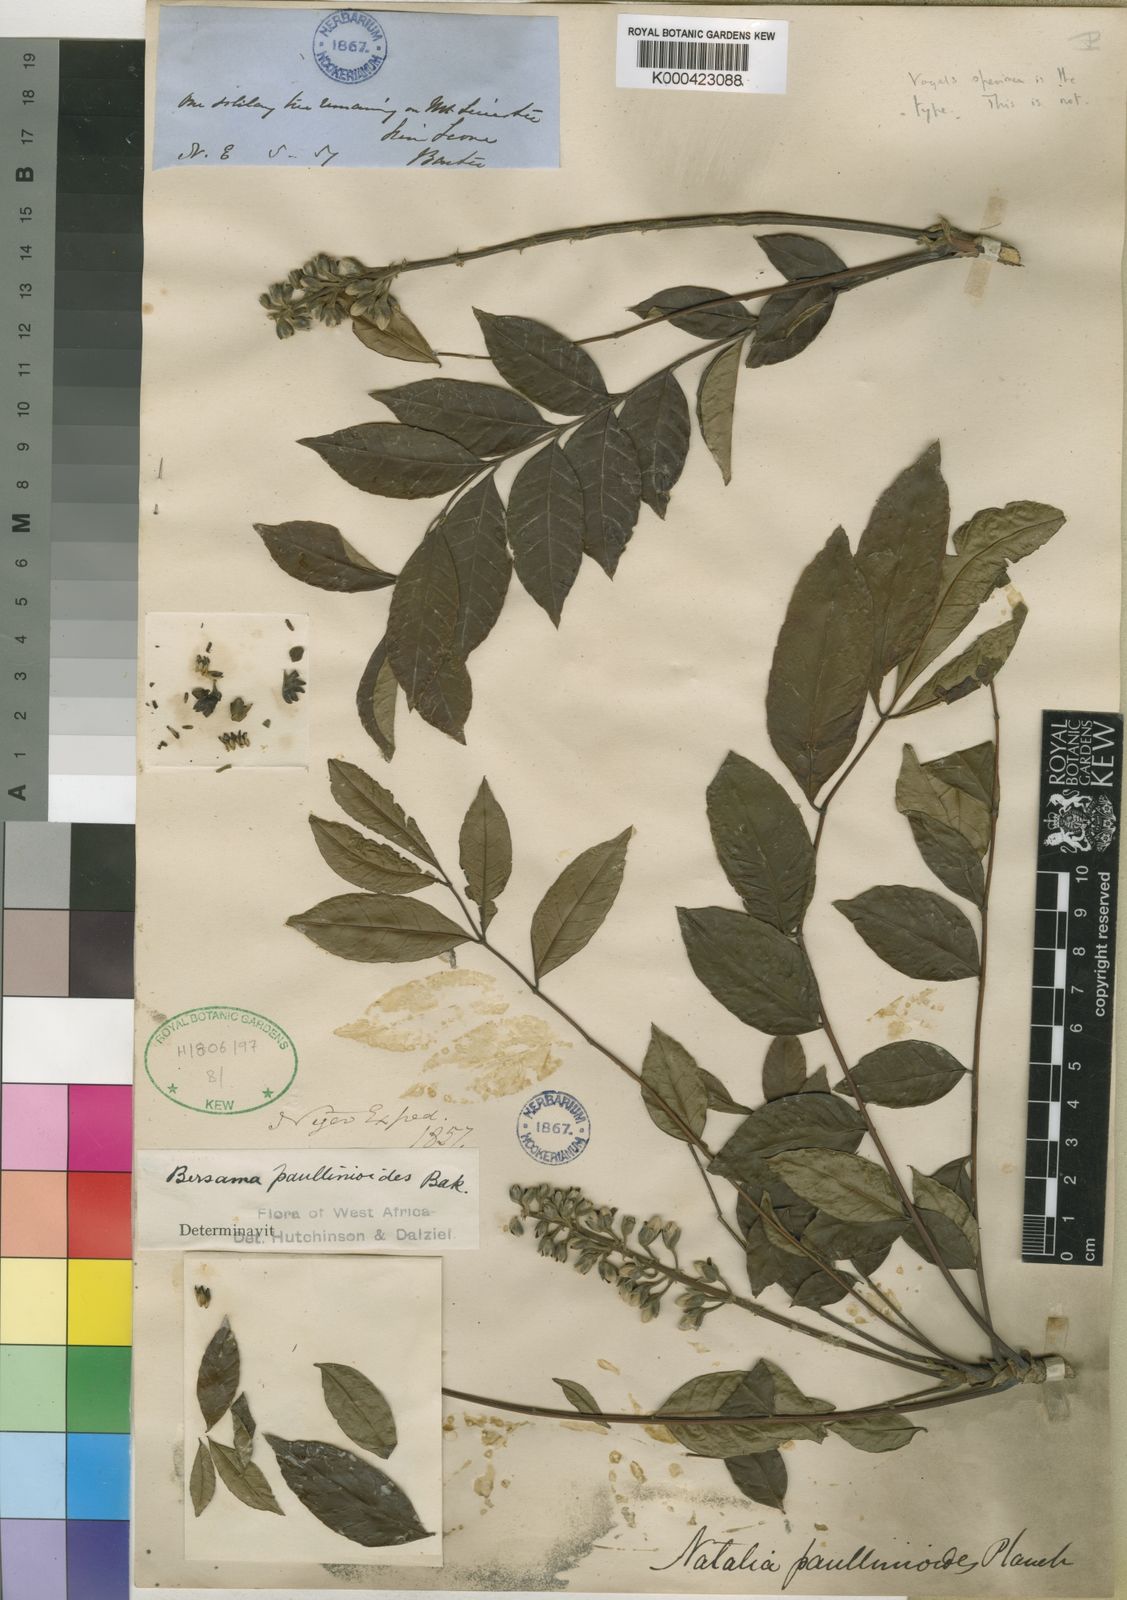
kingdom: Plantae
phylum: Tracheophyta
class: Magnoliopsida
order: Geraniales
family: Melianthaceae
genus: Bersama
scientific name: Bersama abyssinica
